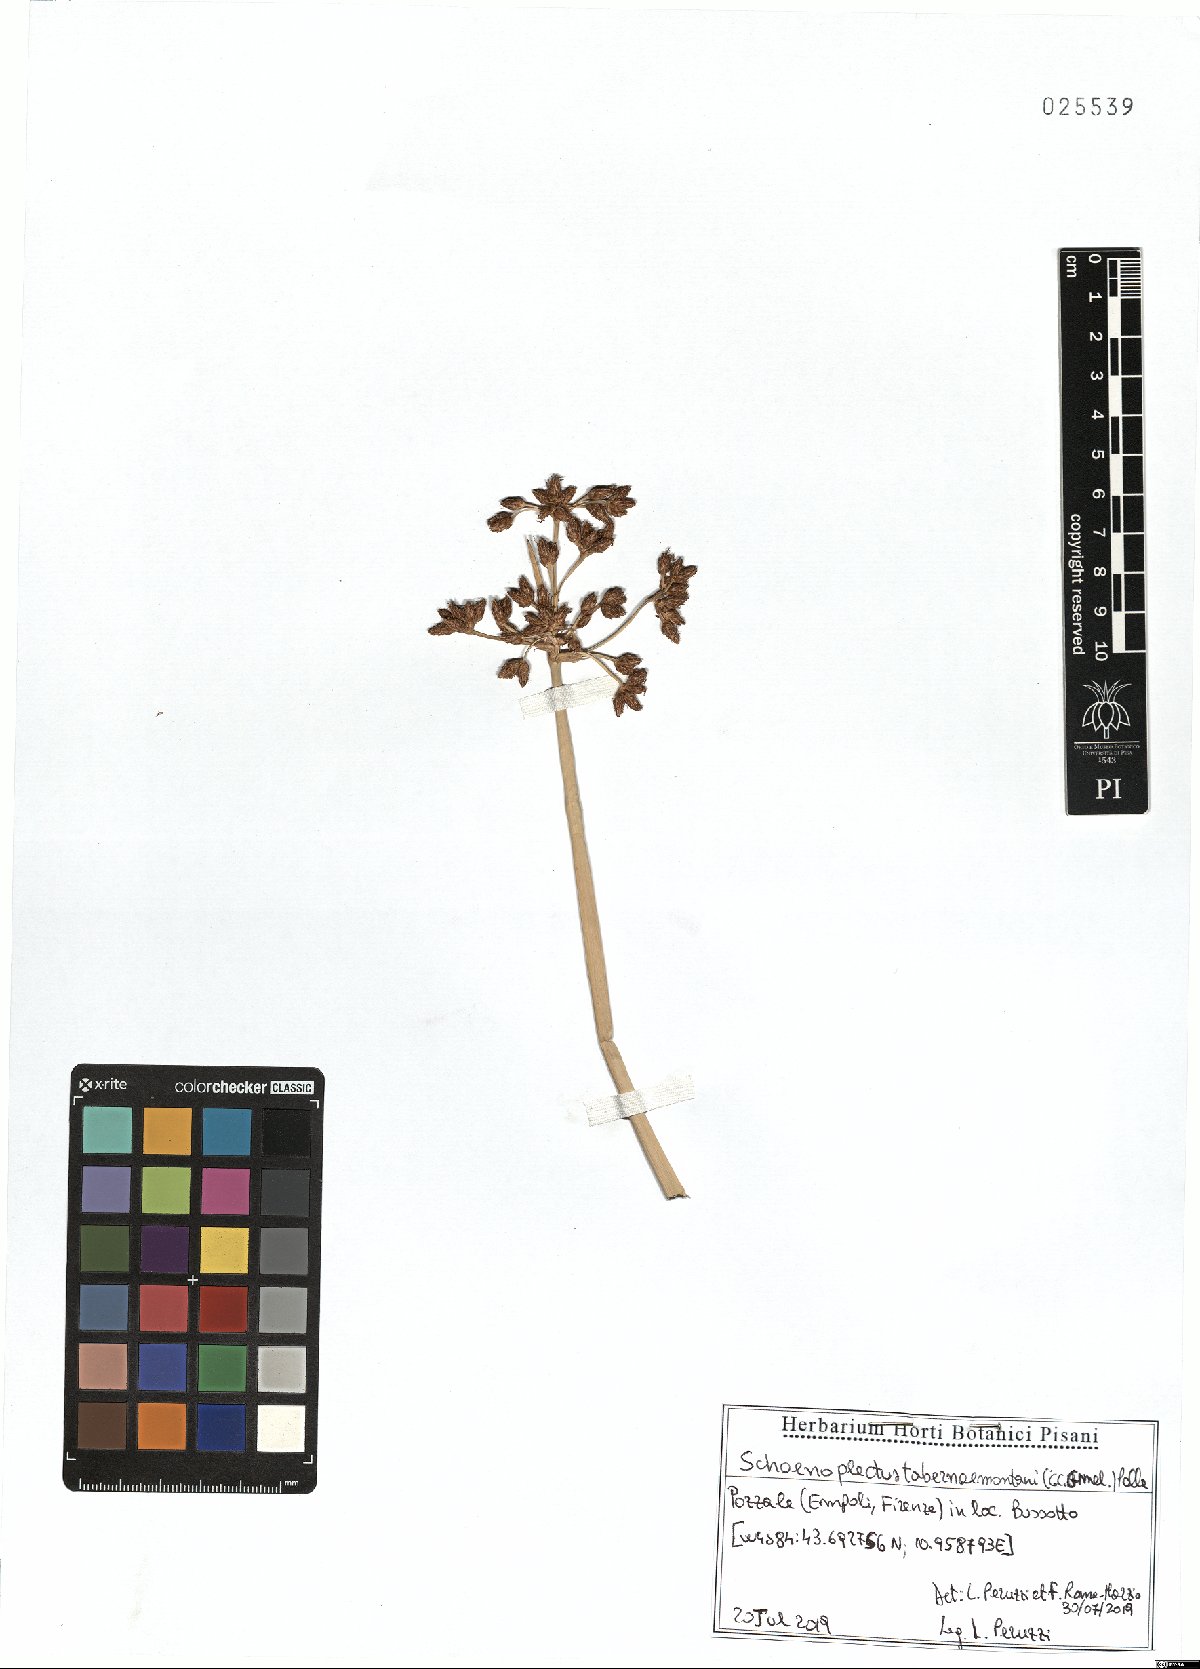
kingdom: Plantae
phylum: Tracheophyta
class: Liliopsida
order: Poales
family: Cyperaceae
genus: Schoenoplectus
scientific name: Schoenoplectus tabernaemontani
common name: Grey club-rush
